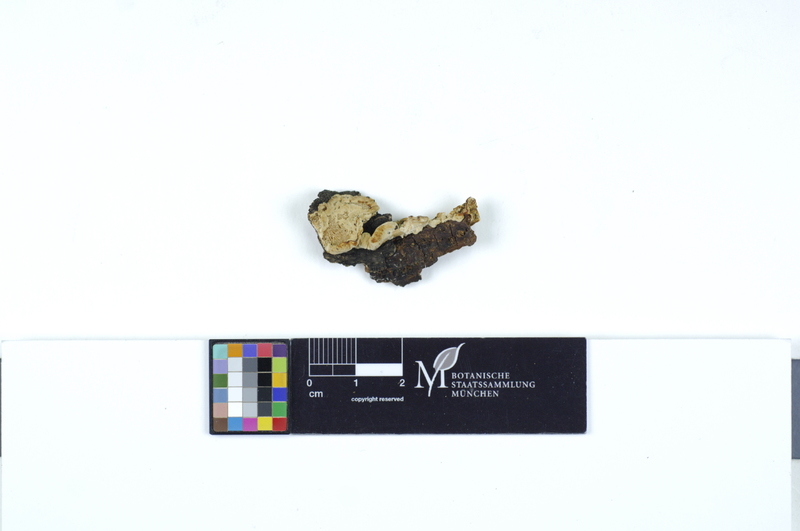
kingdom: Fungi
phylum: Basidiomycota
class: Agaricomycetes
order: Polyporales
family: Steccherinaceae
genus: Antrodiella
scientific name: Antrodiella onychoides
